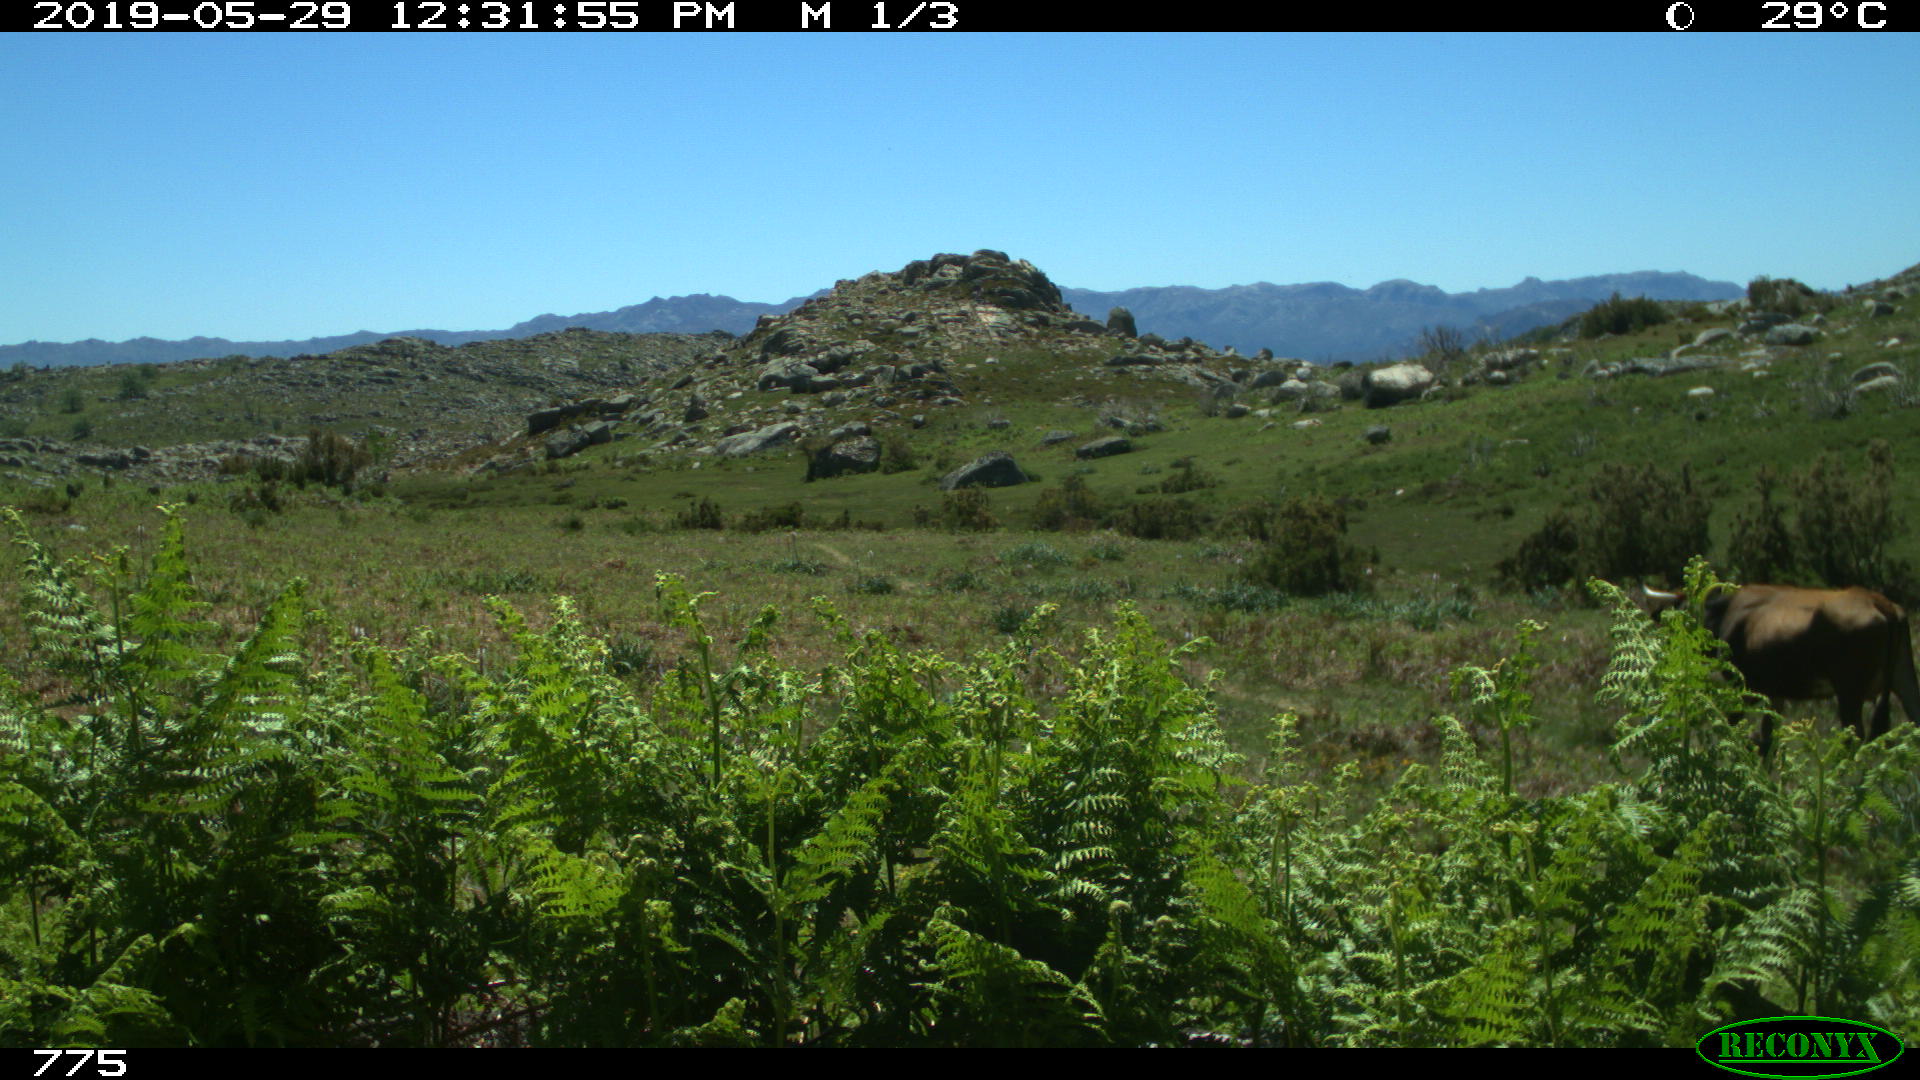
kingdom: Animalia
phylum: Chordata
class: Mammalia
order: Artiodactyla
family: Bovidae
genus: Bos
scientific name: Bos taurus
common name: Domesticated cattle
